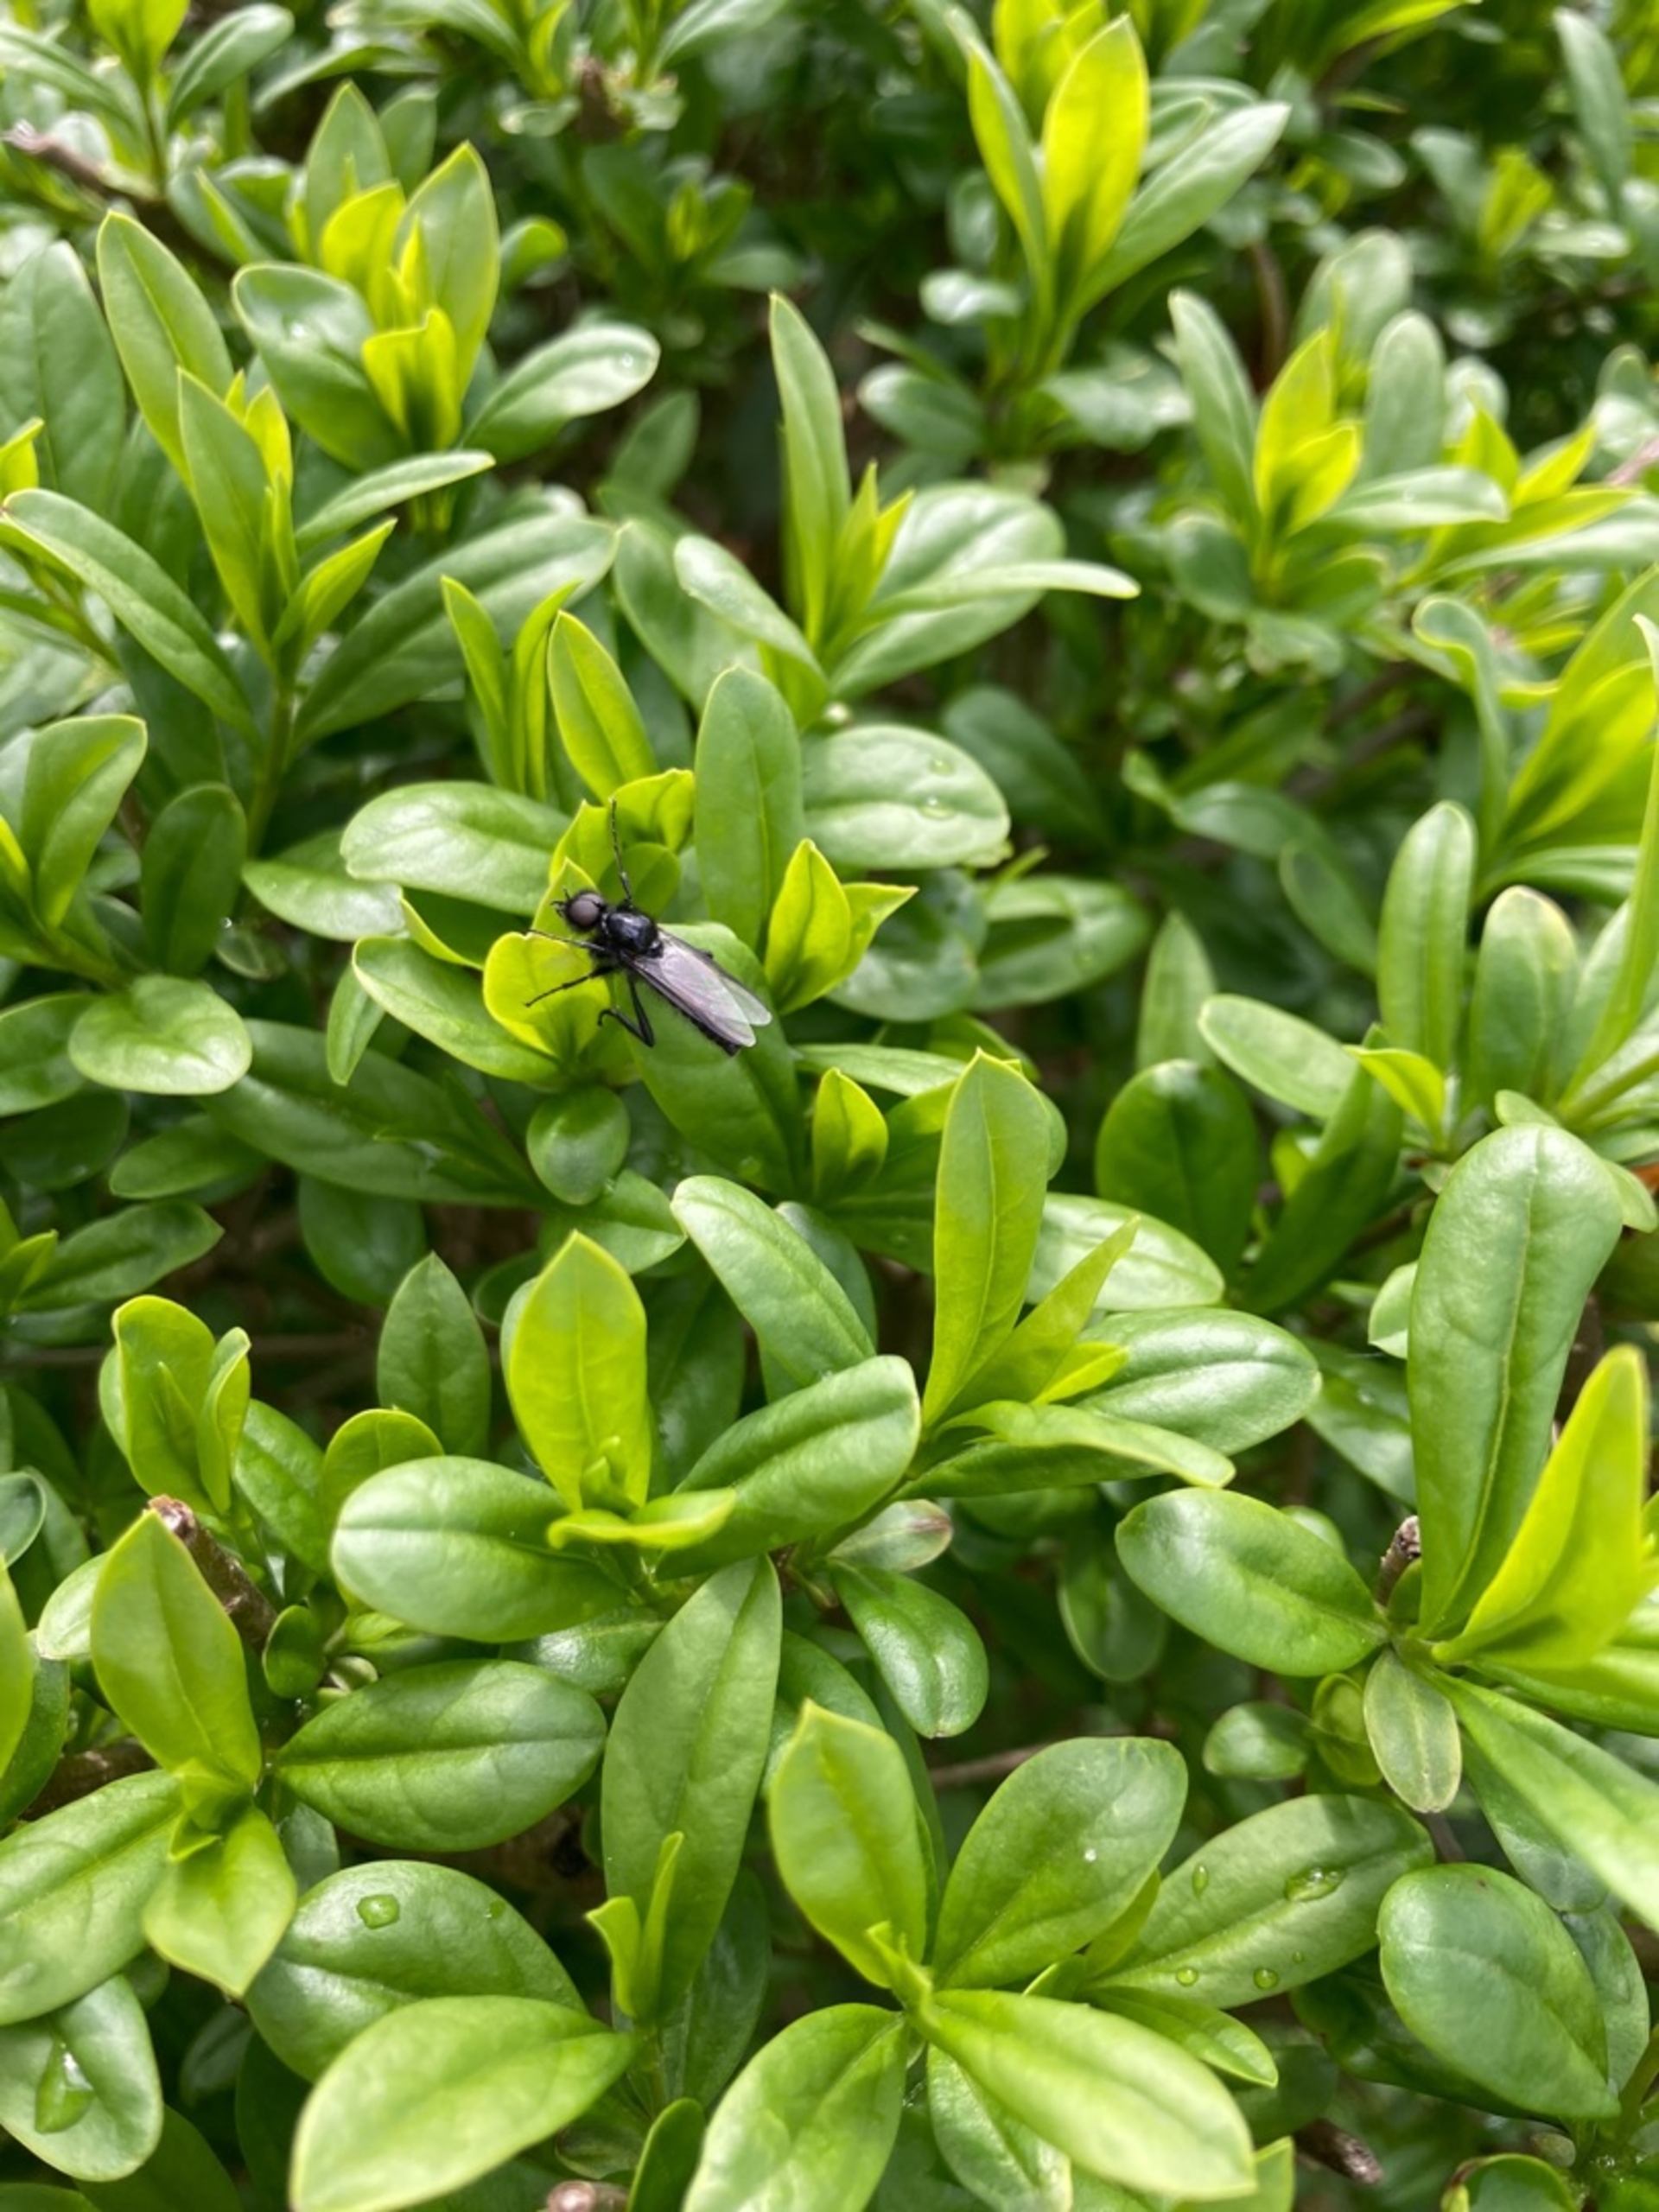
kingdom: Animalia
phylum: Arthropoda
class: Insecta
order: Diptera
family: Bibionidae
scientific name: Bibionidae
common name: Hårmyg
